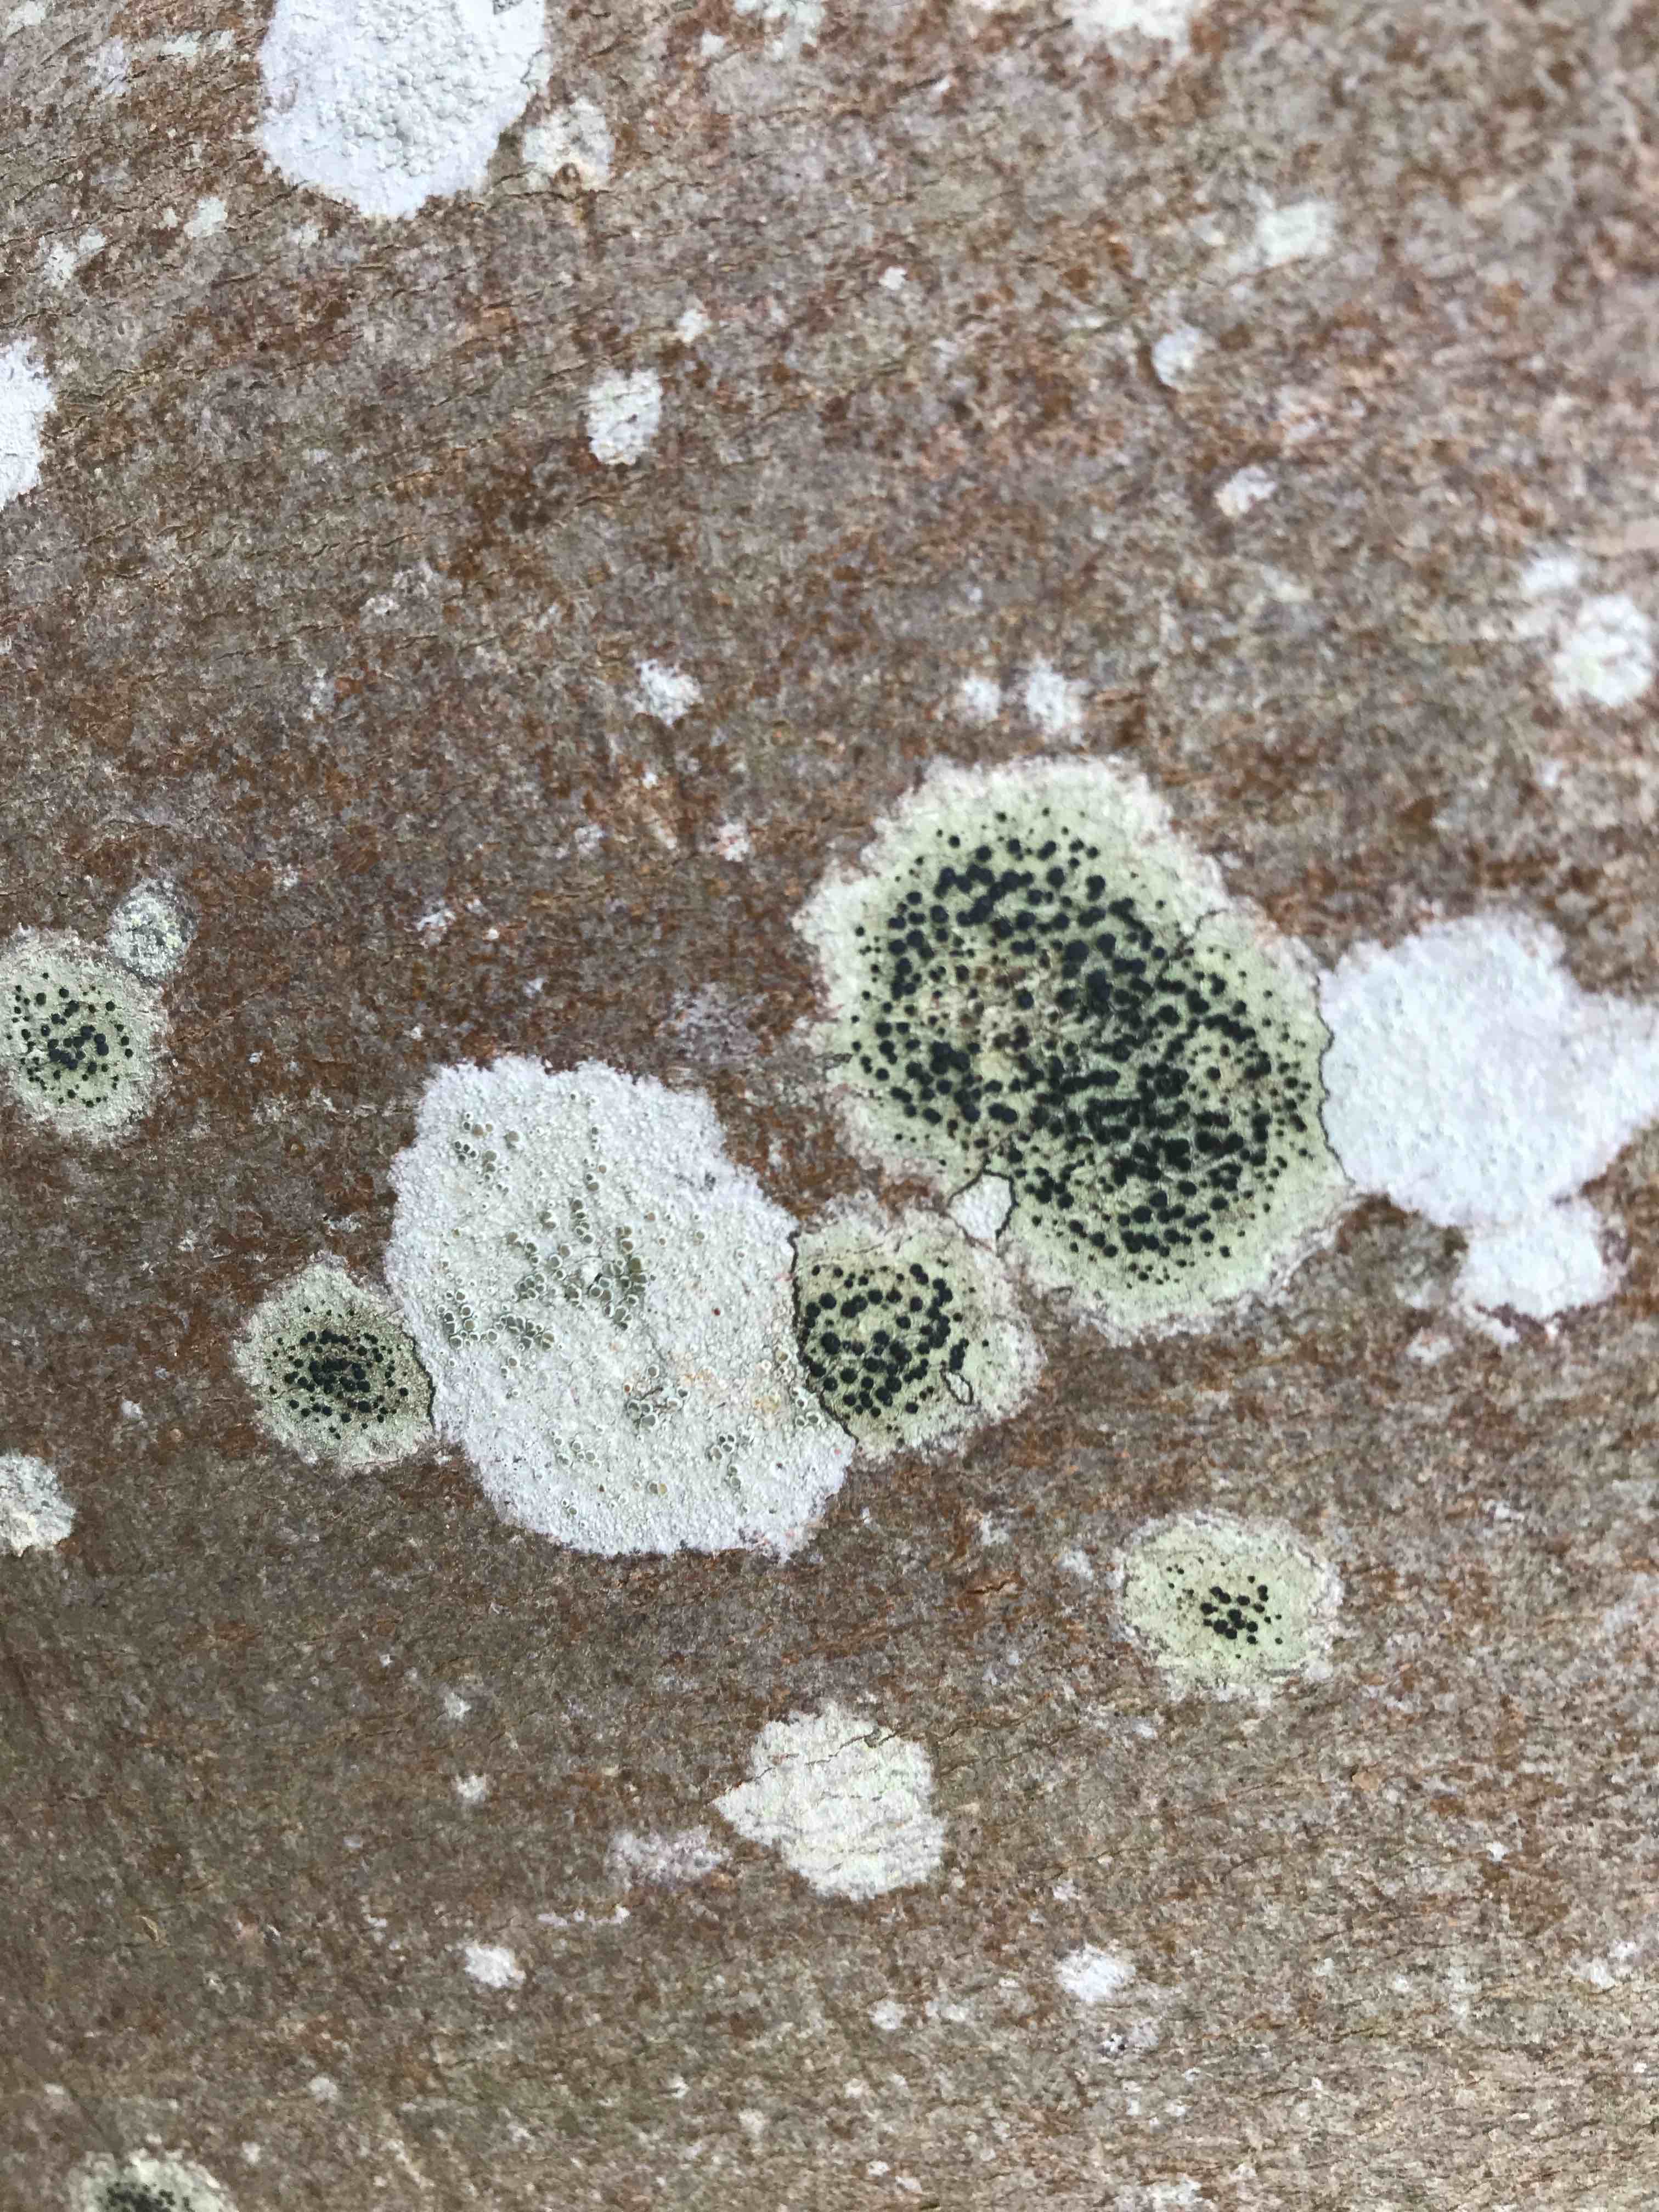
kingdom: Fungi
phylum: Ascomycota
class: Lecanoromycetes
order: Lecanorales
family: Lecanoraceae
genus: Lecidella
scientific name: Lecidella elaeochroma
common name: grågrøn skivelav
